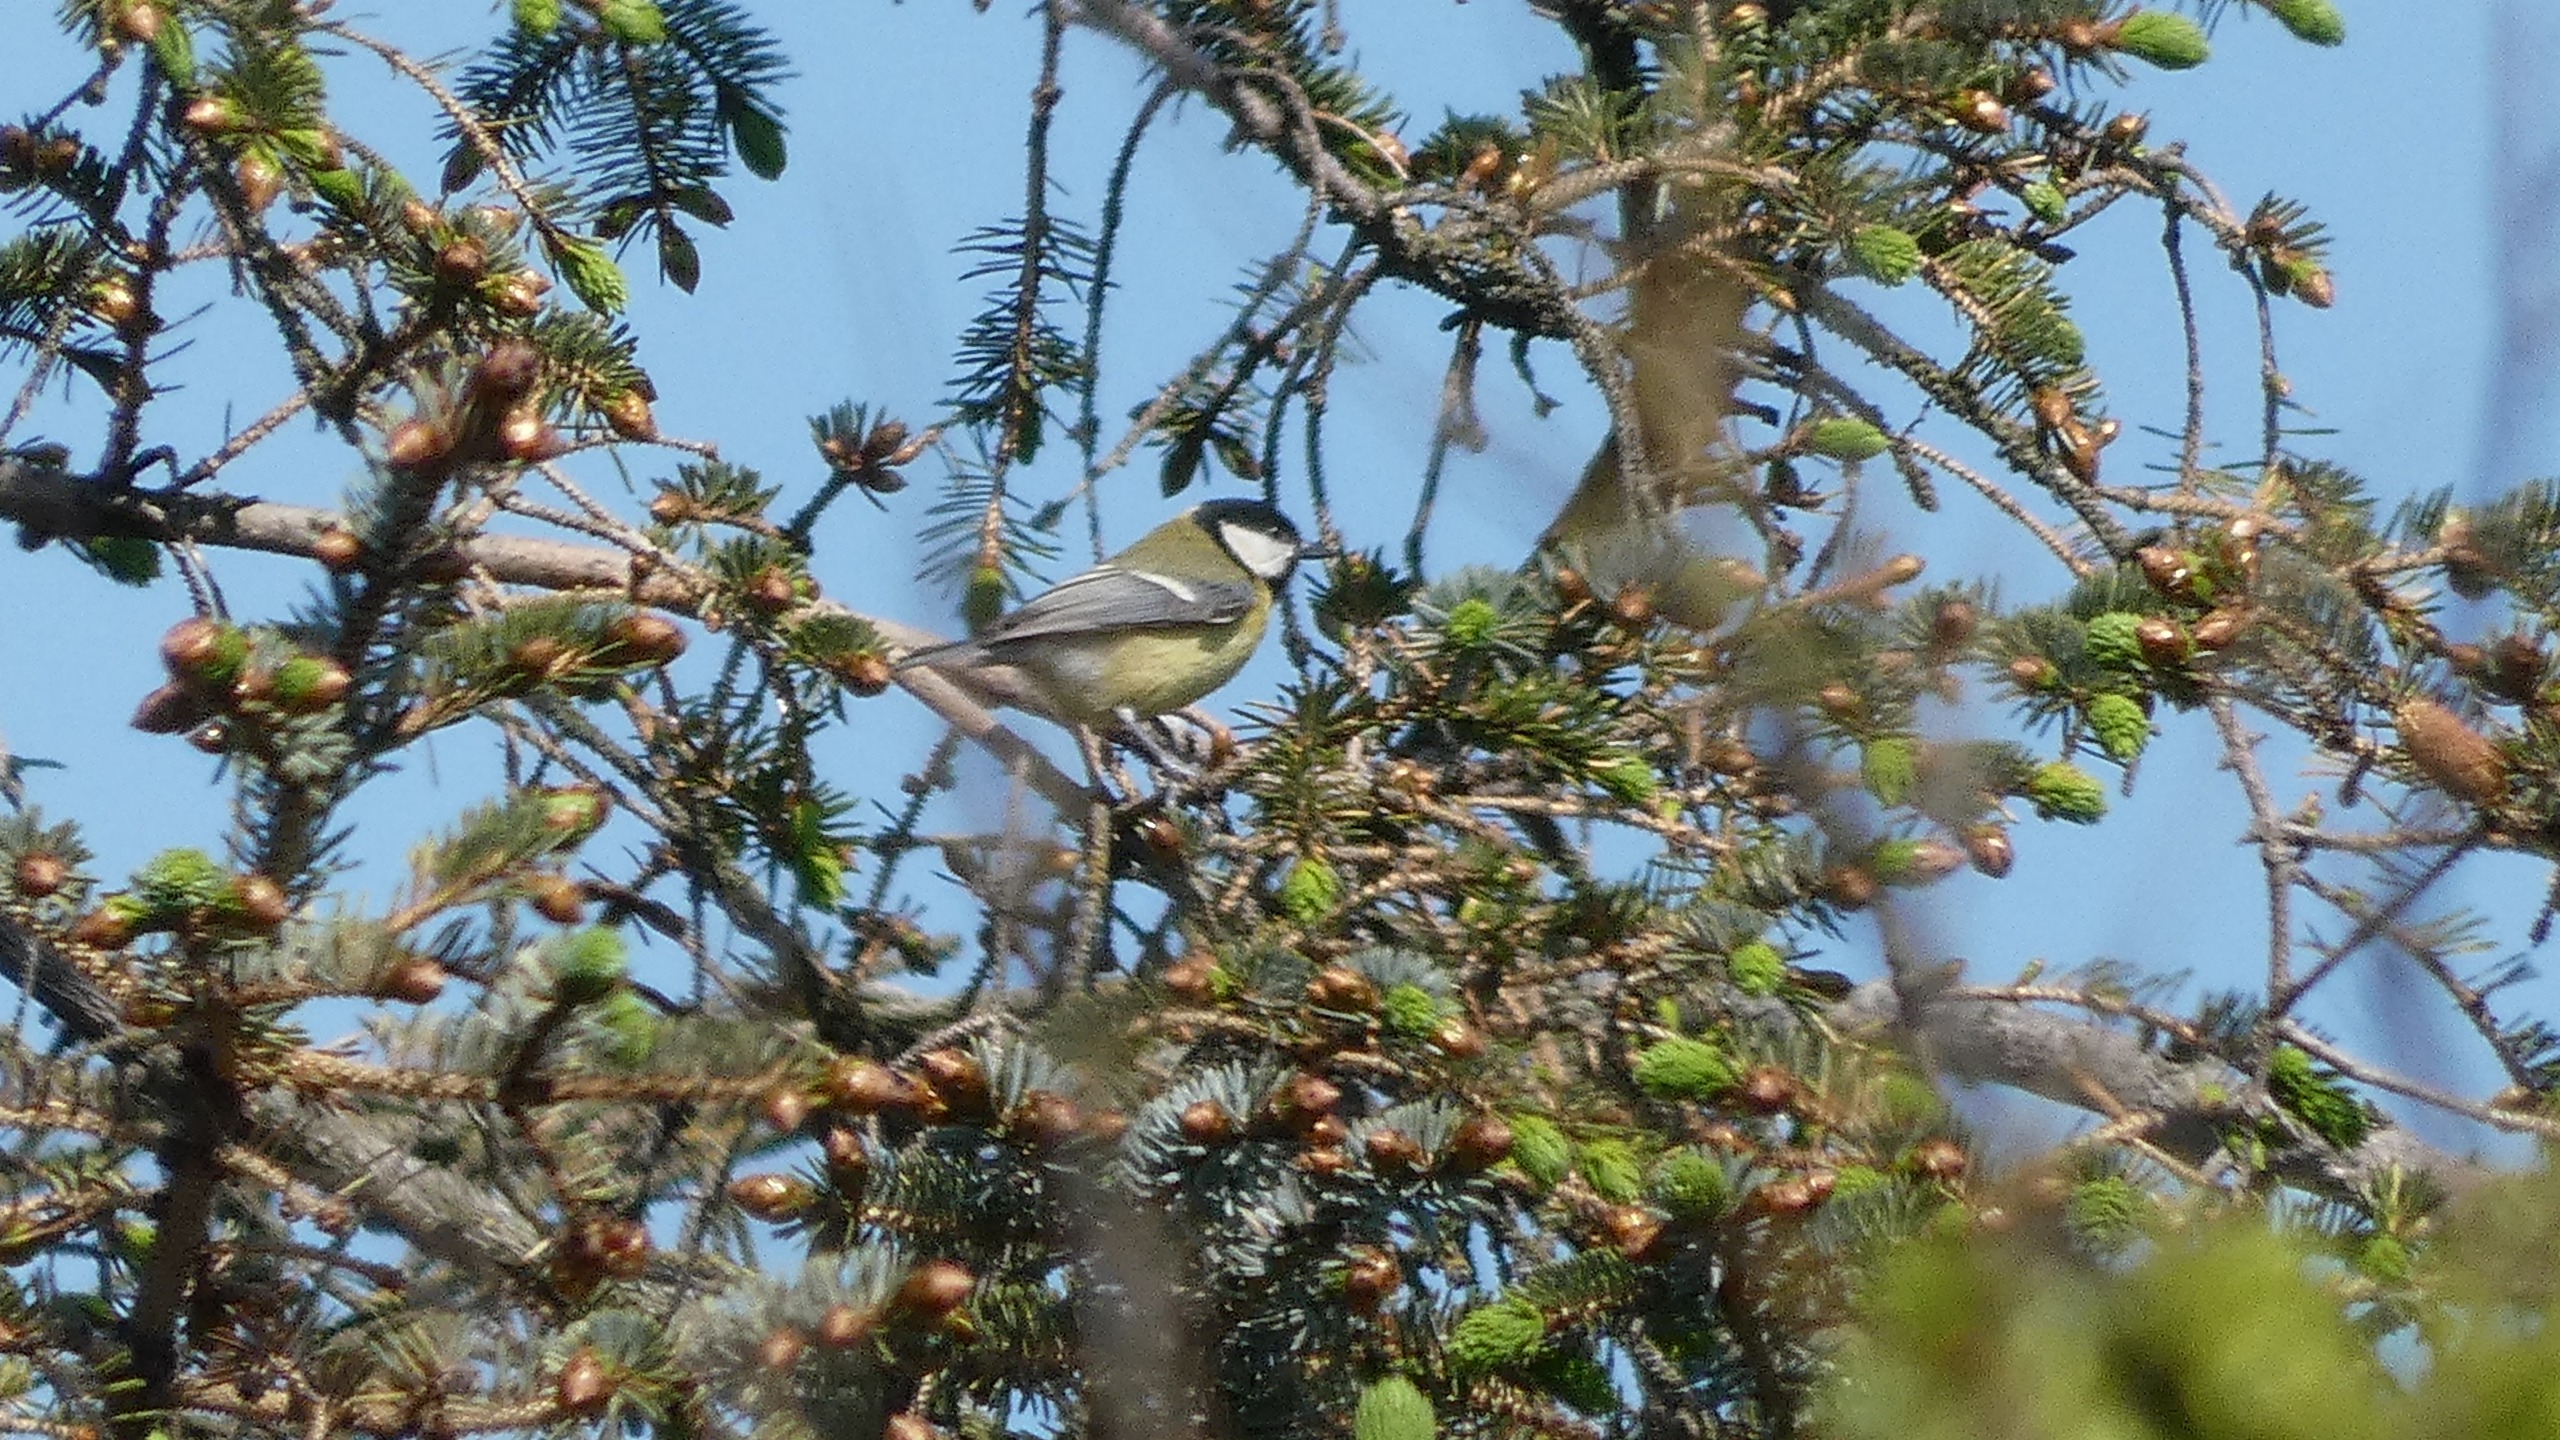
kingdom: Animalia
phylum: Chordata
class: Aves
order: Passeriformes
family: Paridae
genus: Parus
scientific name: Parus major
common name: Musvit
